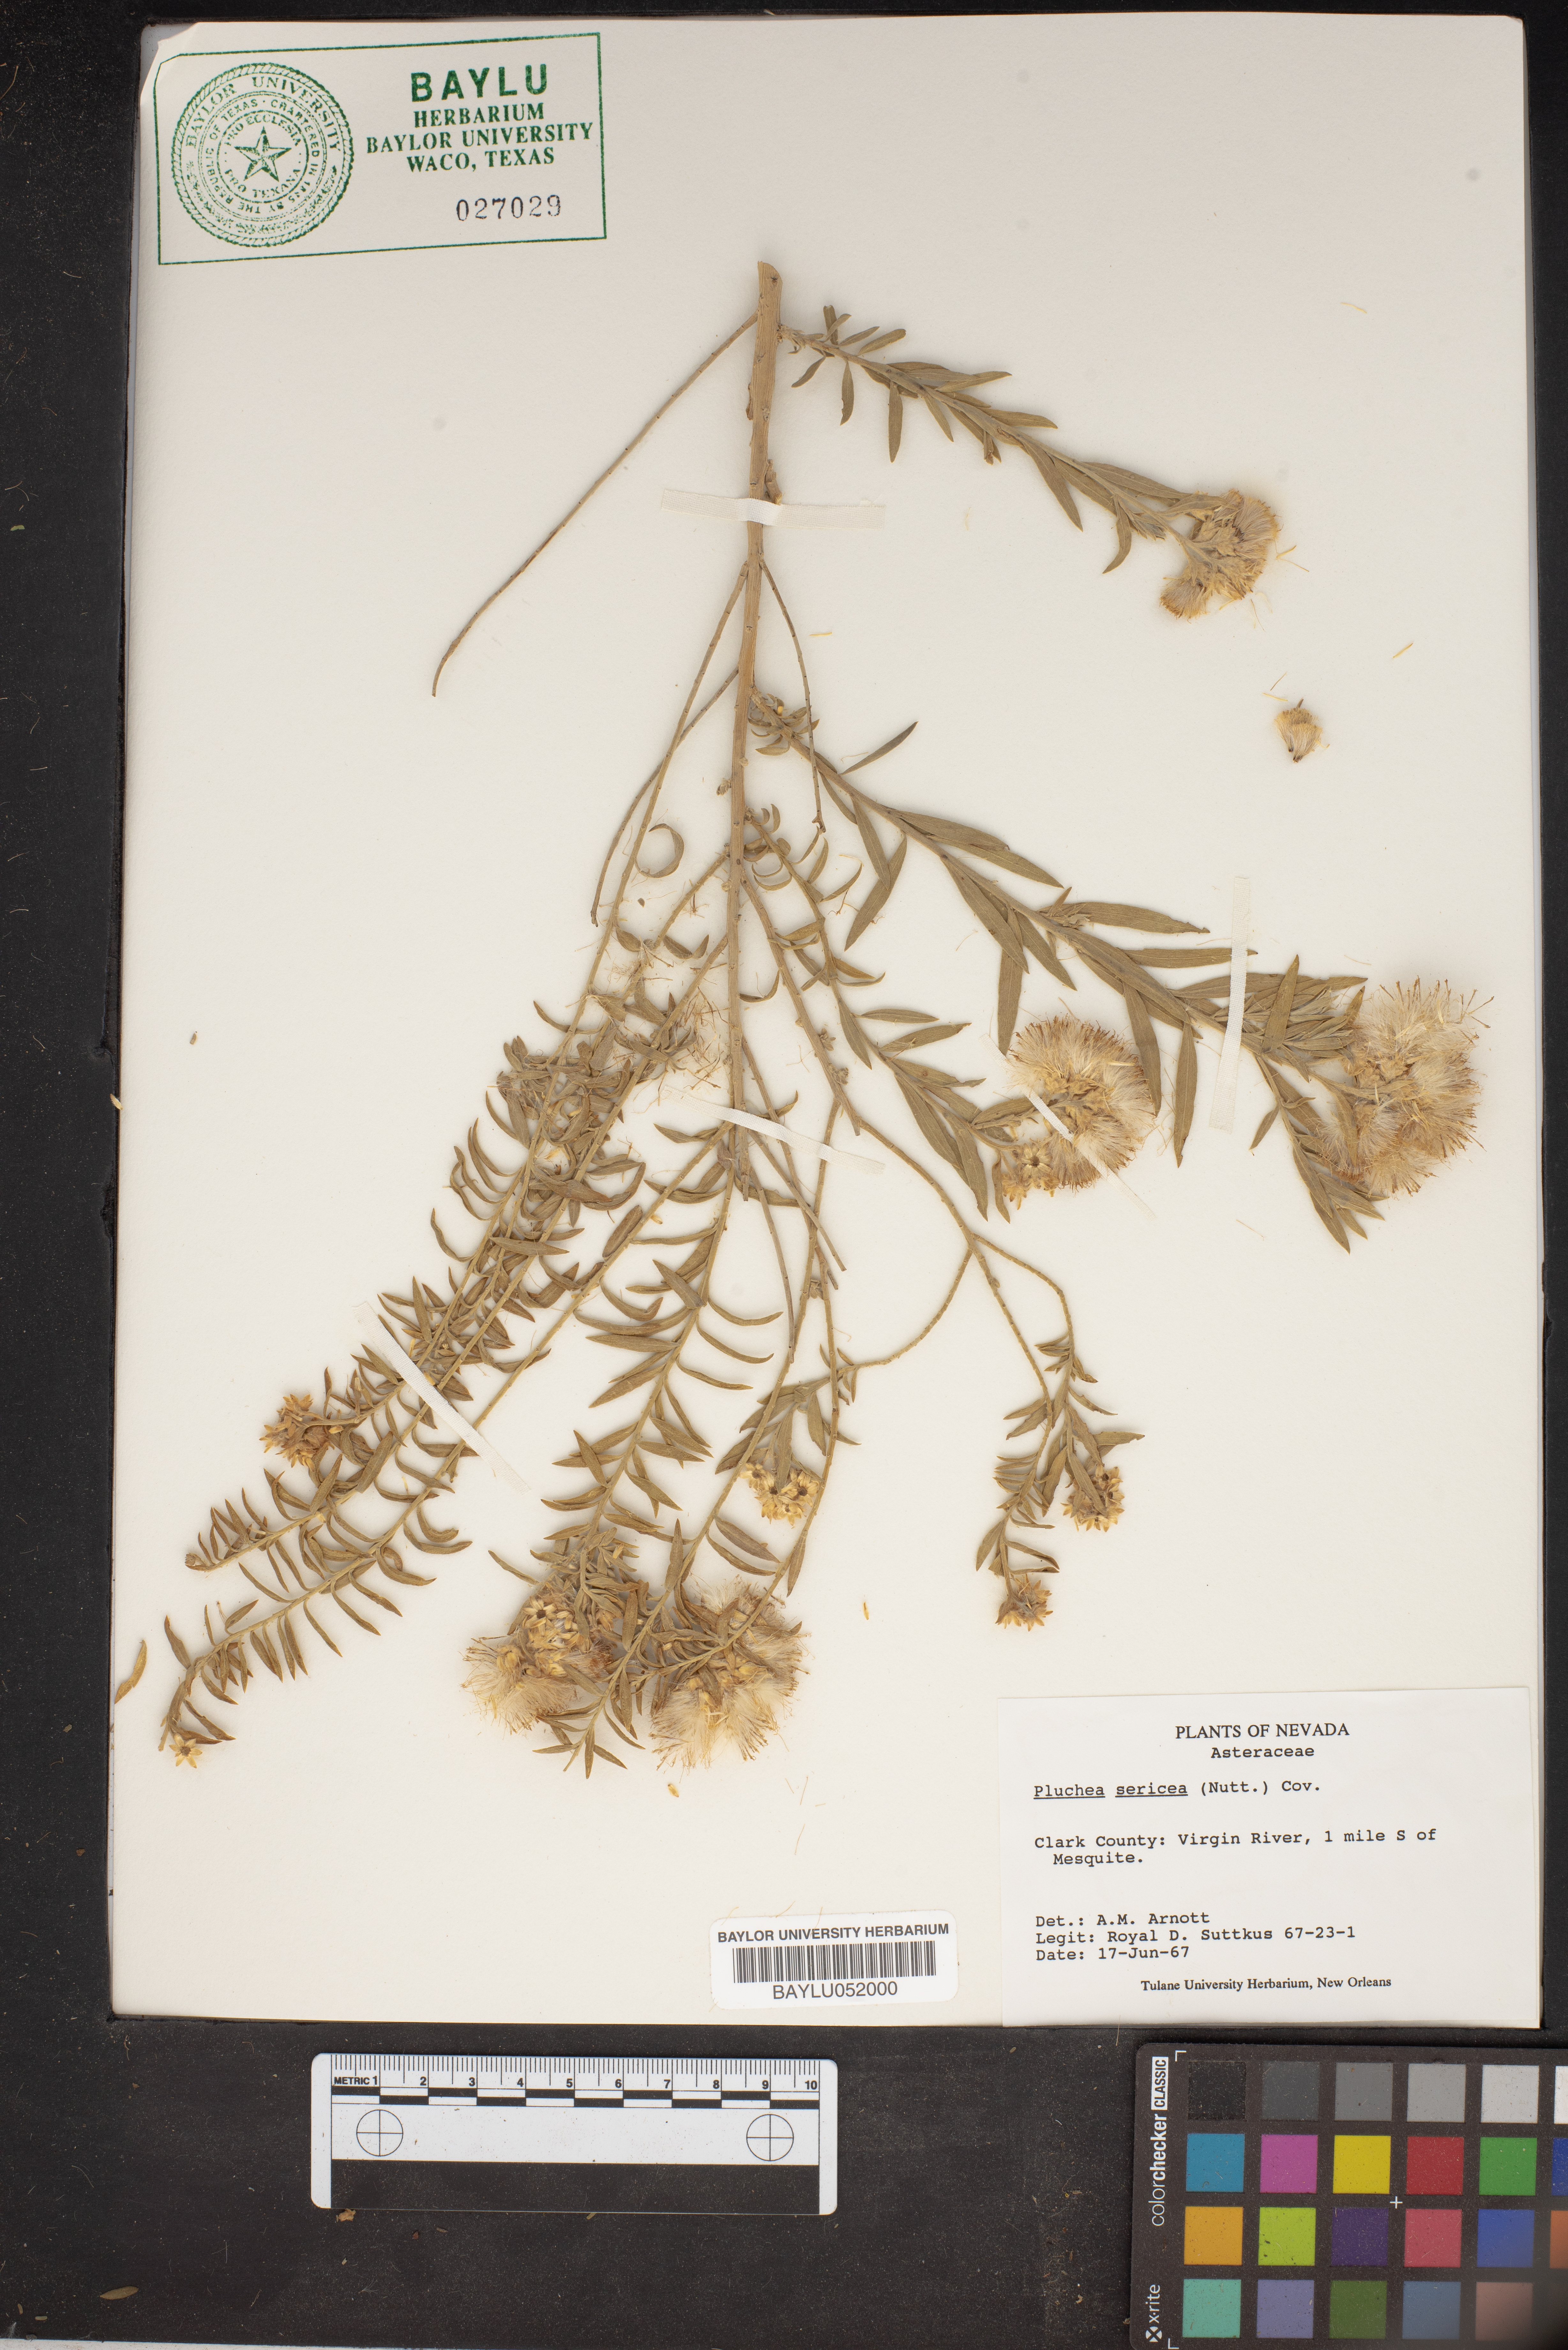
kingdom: Plantae
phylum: Tracheophyta
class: Magnoliopsida
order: Asterales
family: Asteraceae
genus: Pluchea
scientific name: Pluchea sericea
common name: Arrow-weed
